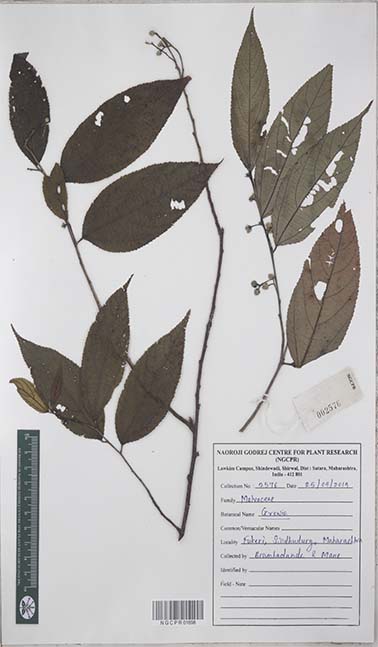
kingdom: Plantae
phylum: Tracheophyta
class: Magnoliopsida
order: Malvales
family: Malvaceae
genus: Grewia
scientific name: Grewia
